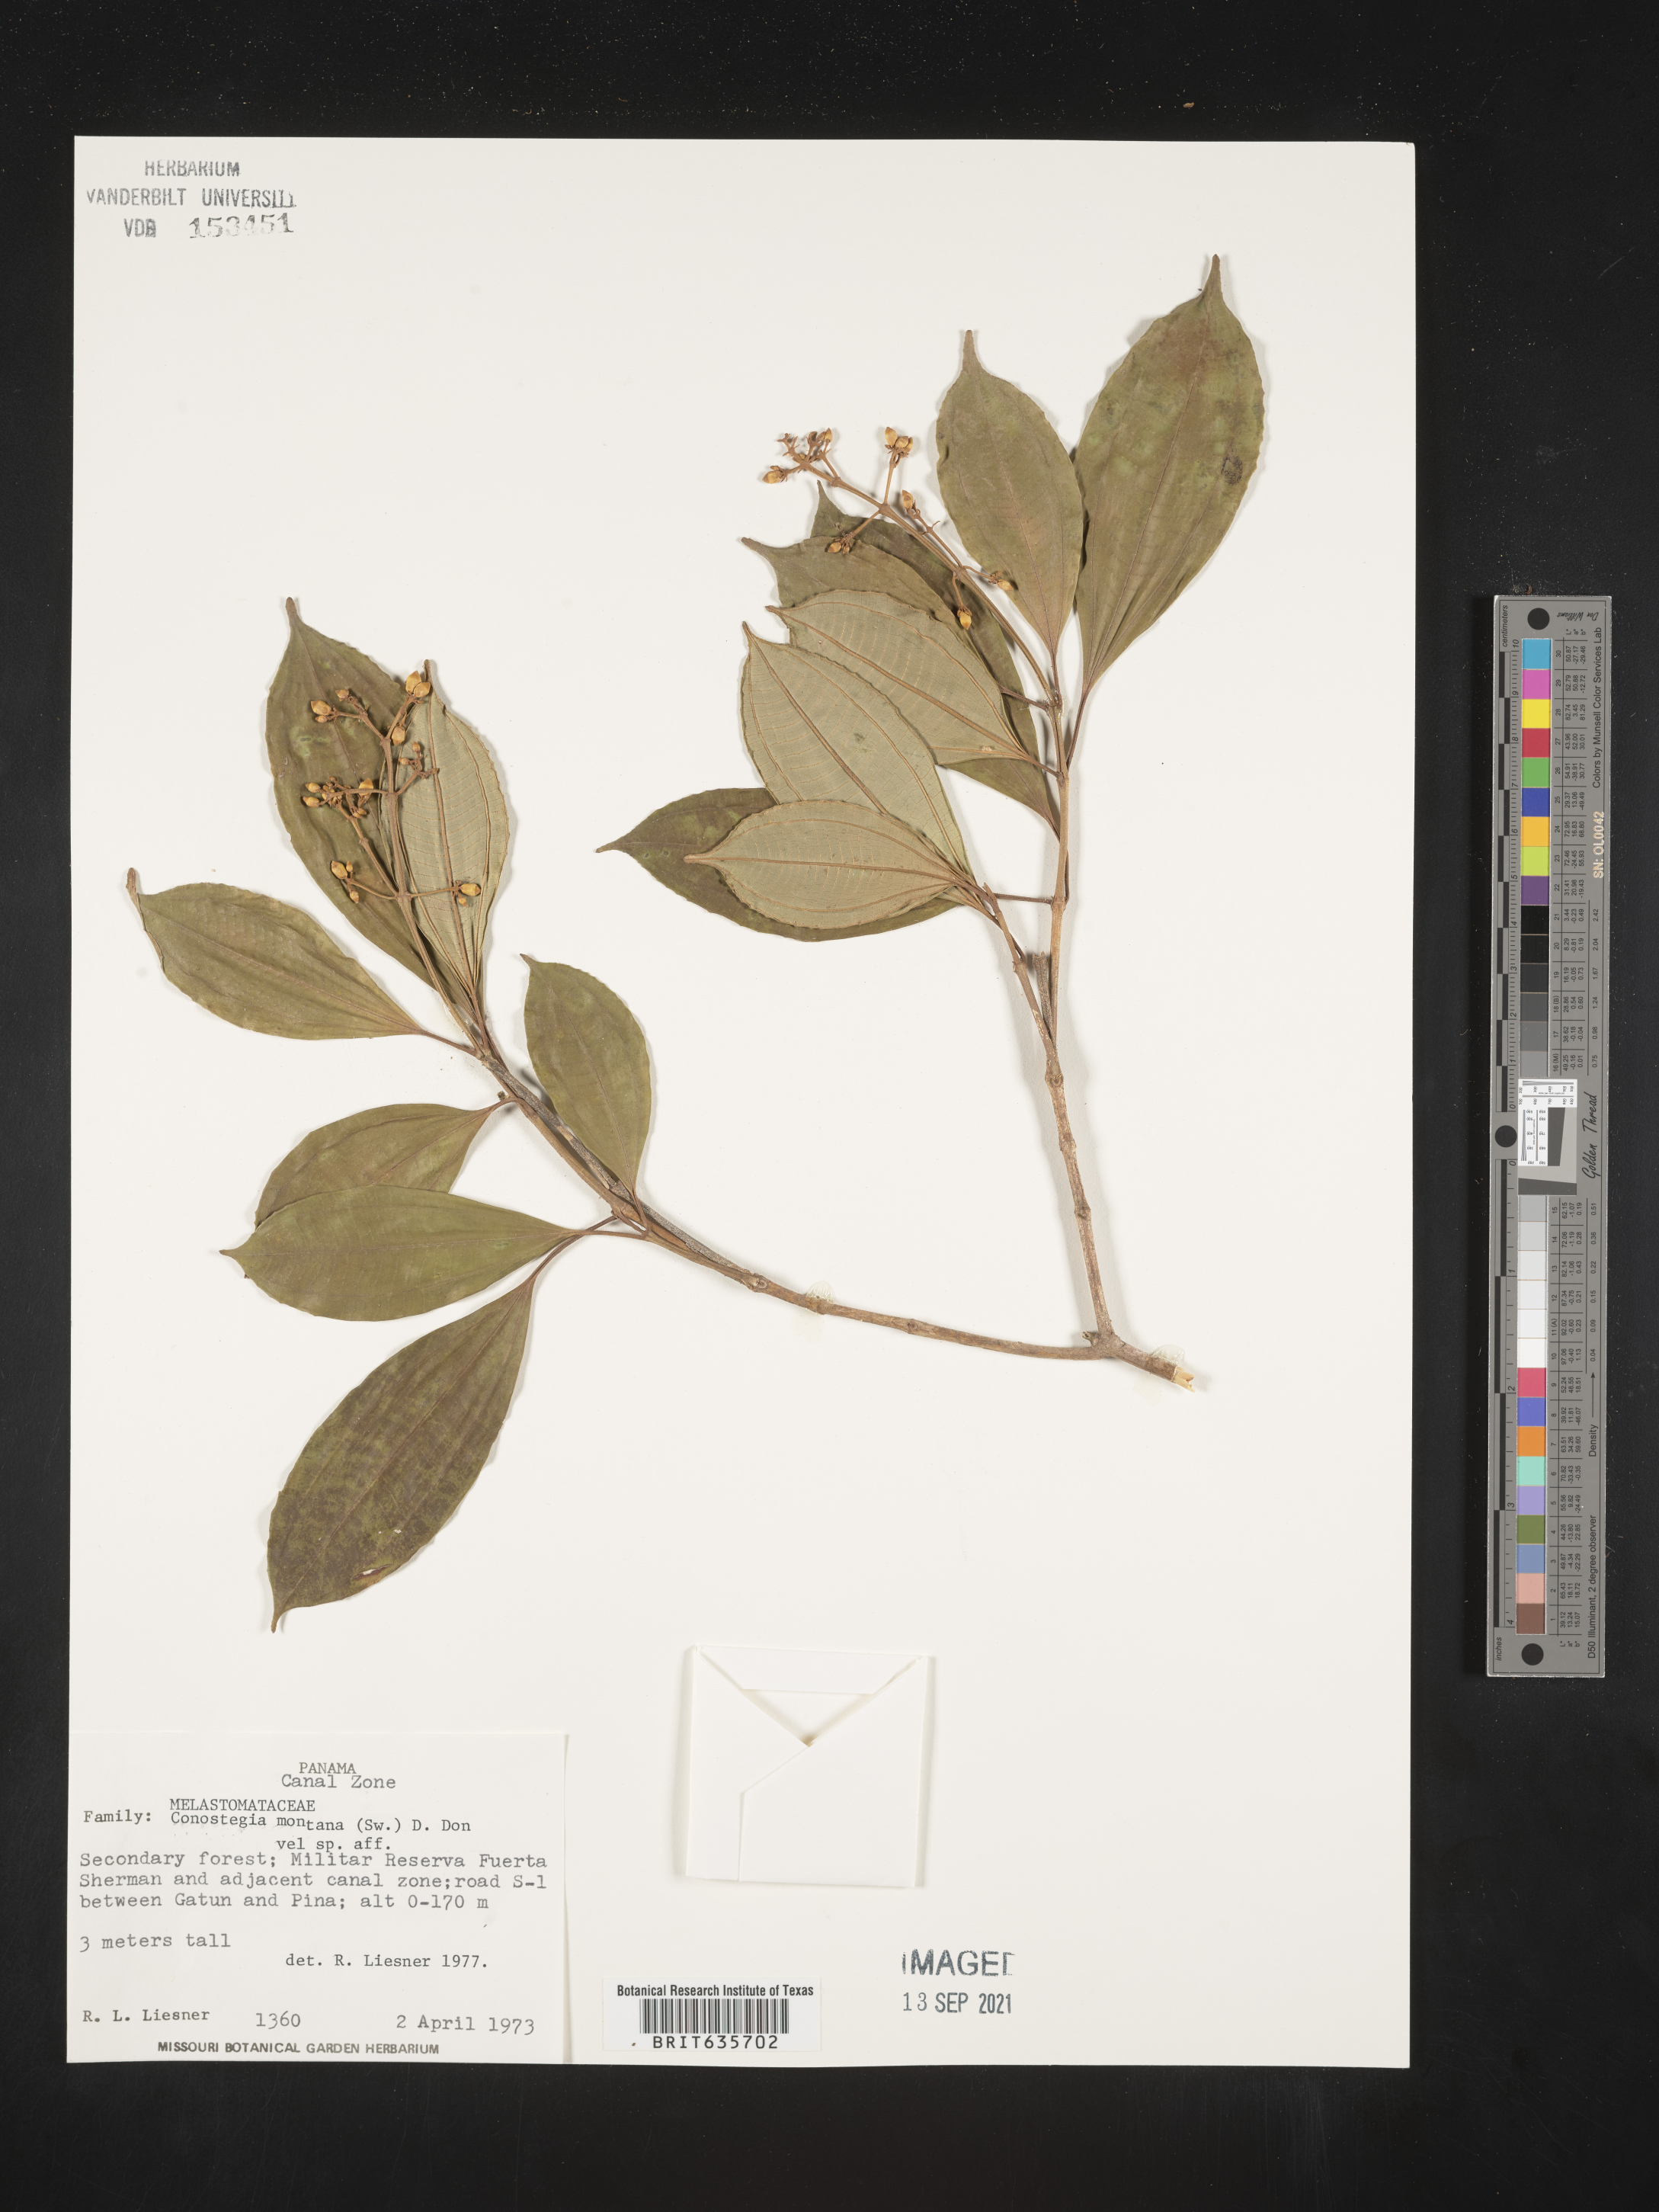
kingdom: Plantae
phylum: Tracheophyta
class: Magnoliopsida
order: Myrtales
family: Melastomataceae
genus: Miconia
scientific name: Miconia
